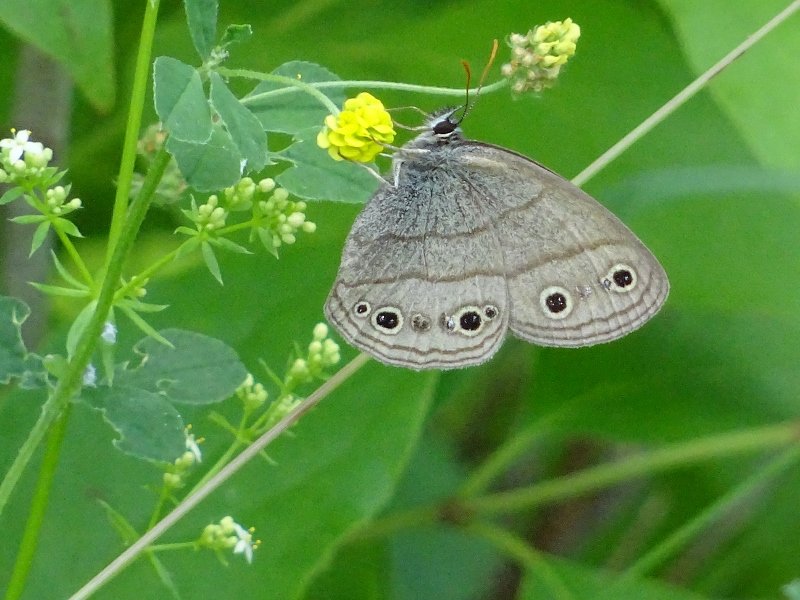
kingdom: Animalia
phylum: Arthropoda
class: Insecta
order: Lepidoptera
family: Nymphalidae
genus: Euptychia
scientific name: Euptychia cymela
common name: Little Wood Satyr
